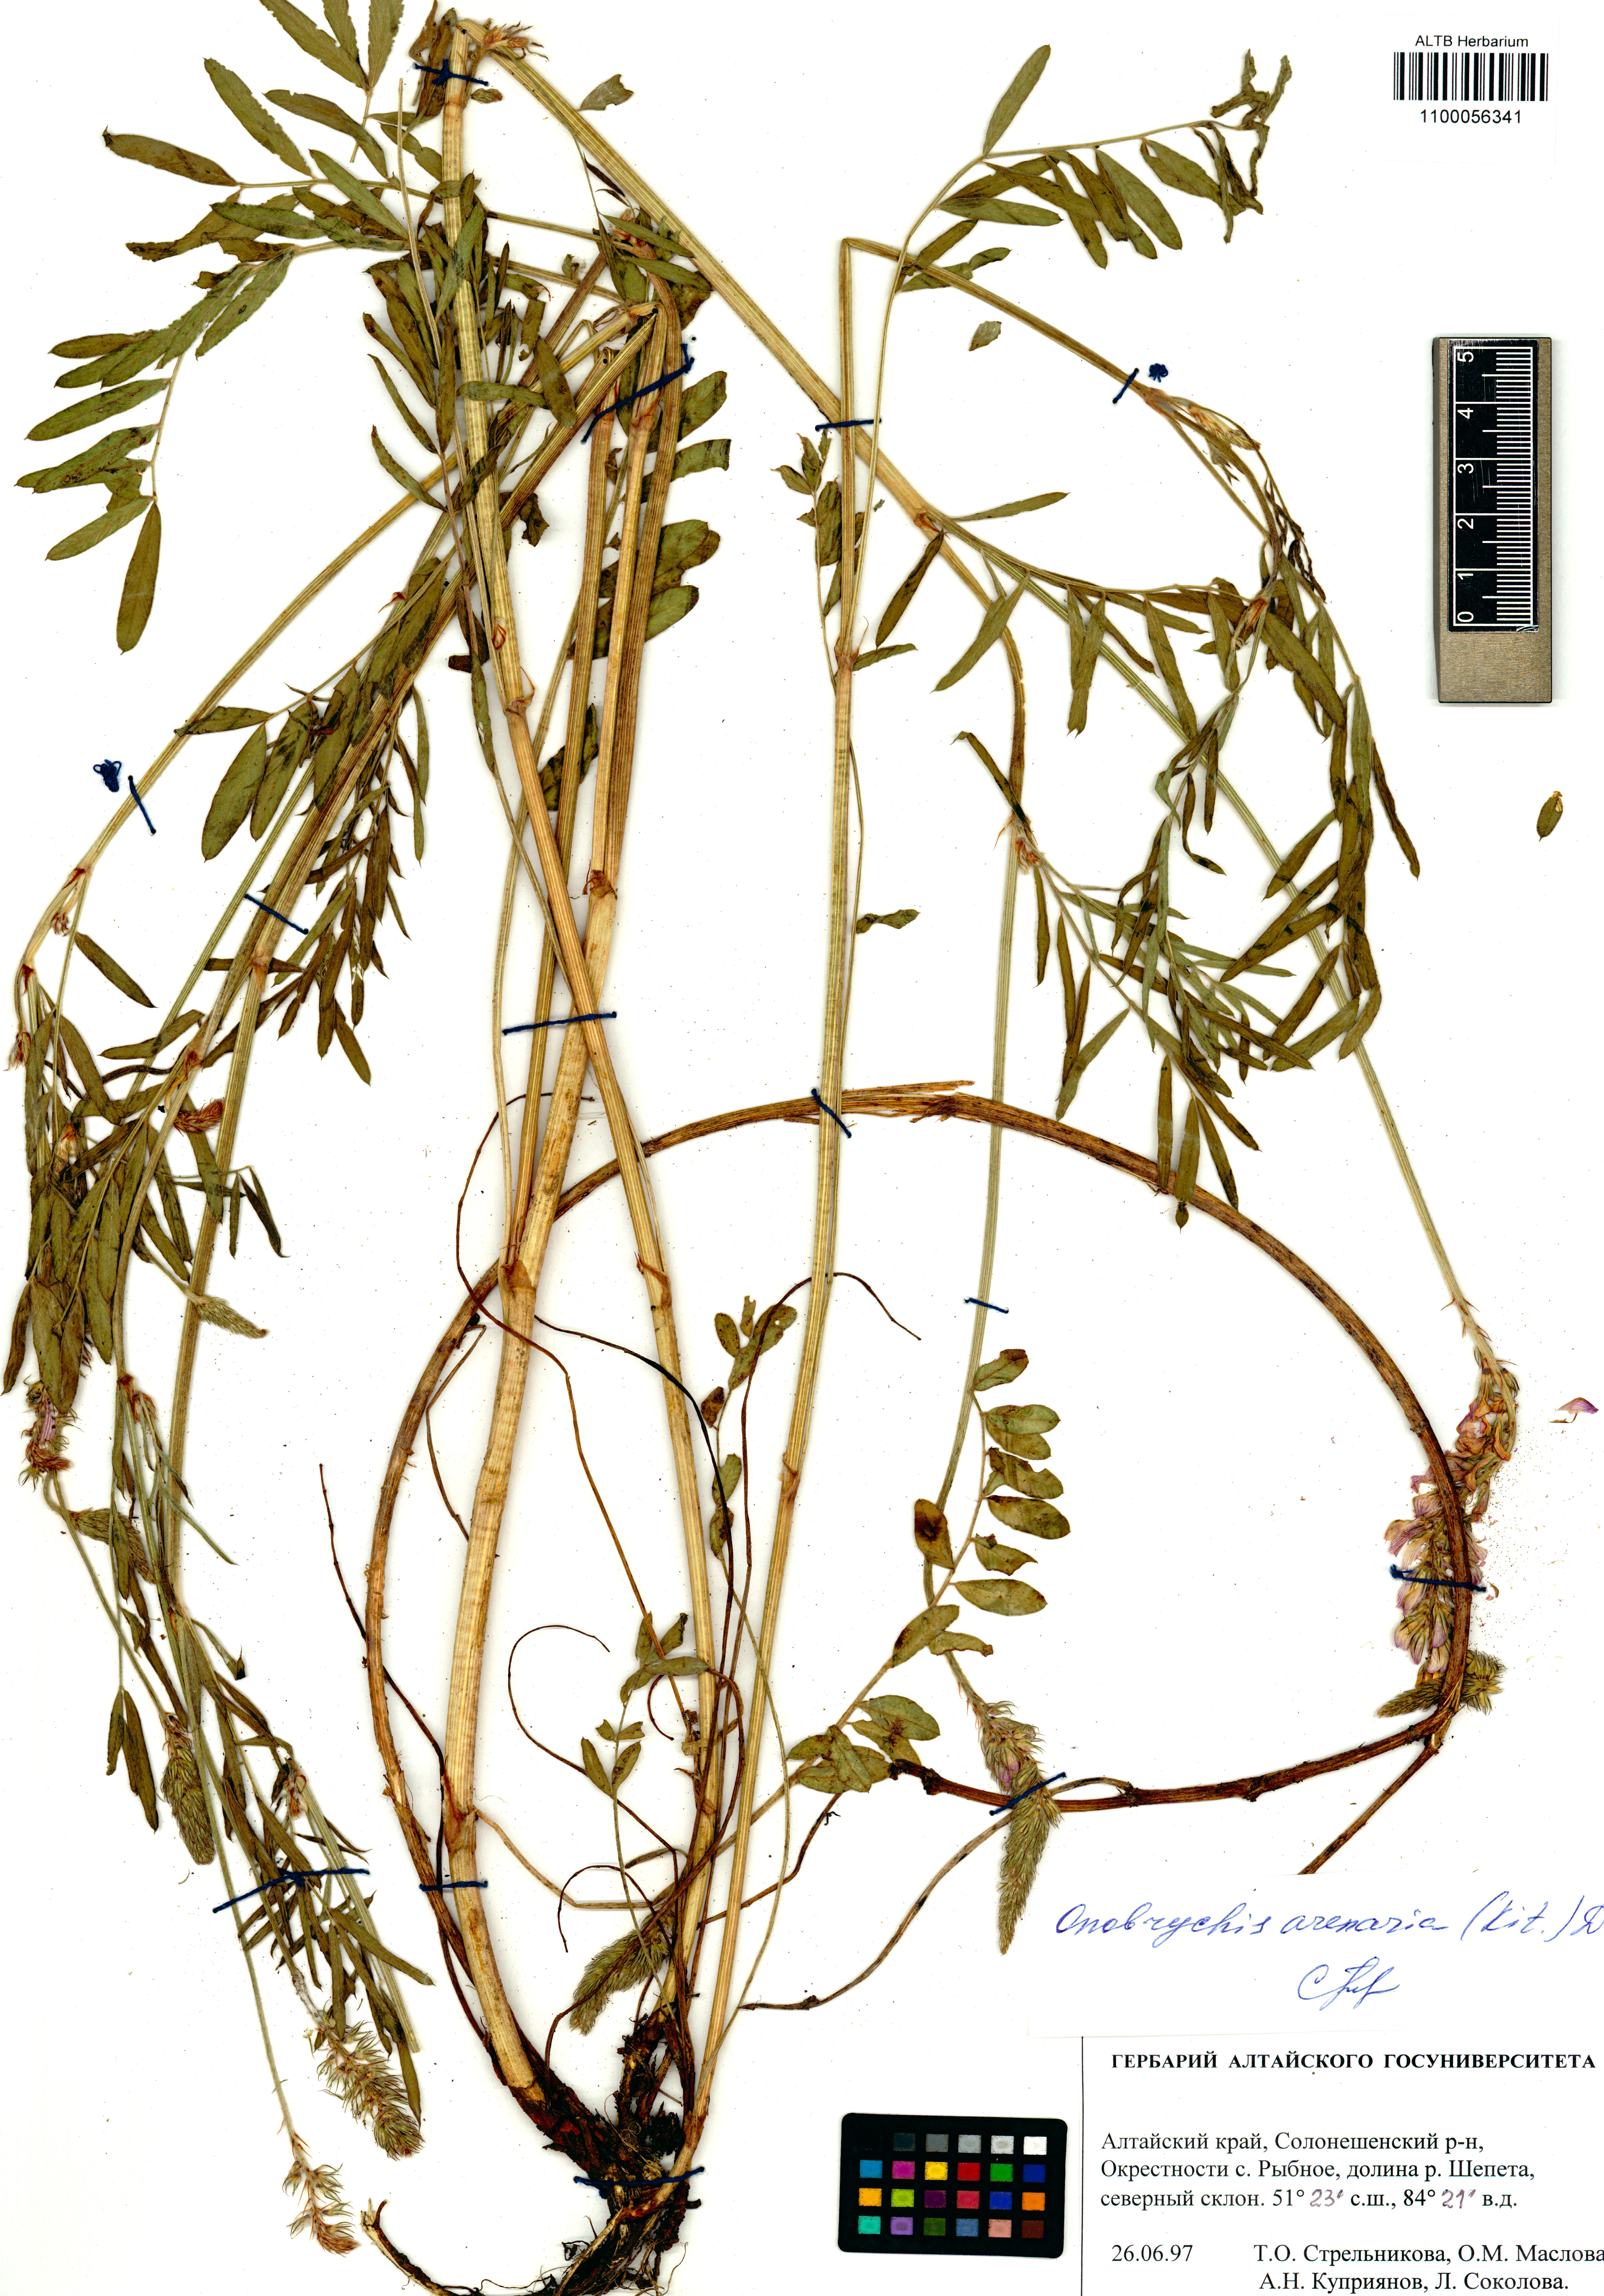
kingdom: Plantae
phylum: Tracheophyta
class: Magnoliopsida
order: Fabales
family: Fabaceae
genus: Onobrychis
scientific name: Onobrychis arenaria
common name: Sand esparcet
